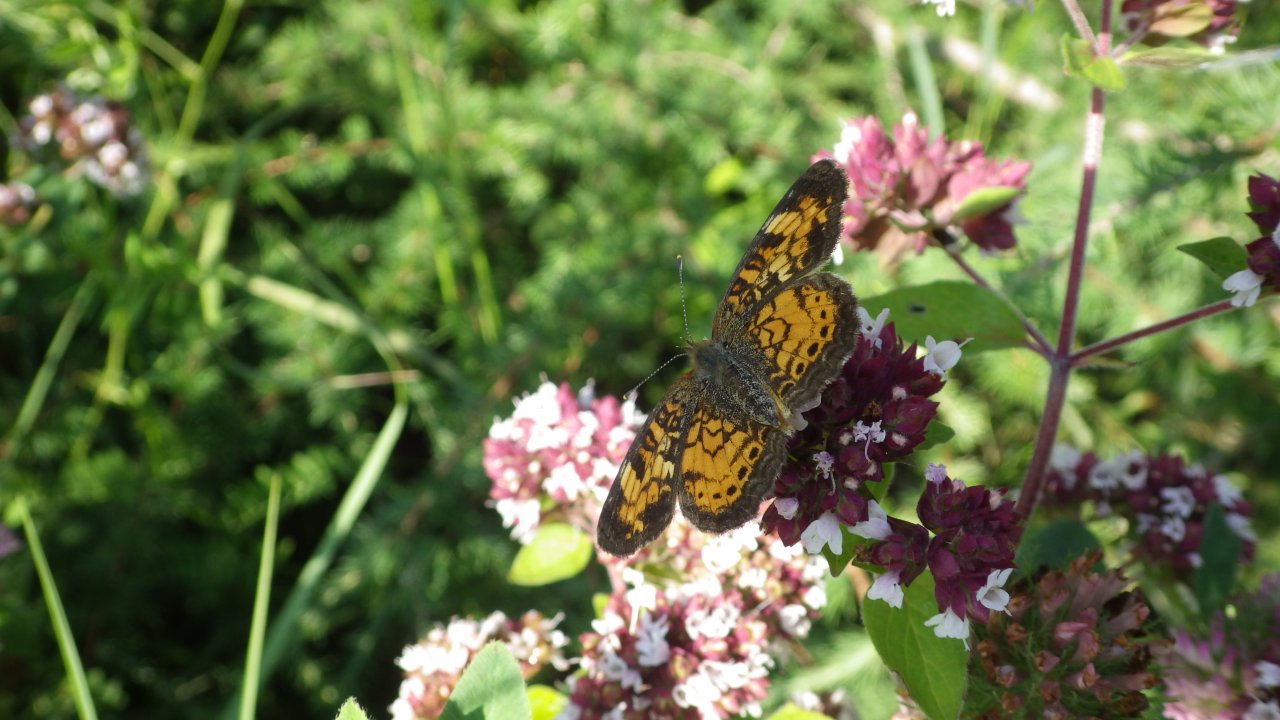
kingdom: Animalia
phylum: Arthropoda
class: Insecta
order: Lepidoptera
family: Nymphalidae
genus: Phyciodes
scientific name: Phyciodes tharos
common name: Northern Crescent
